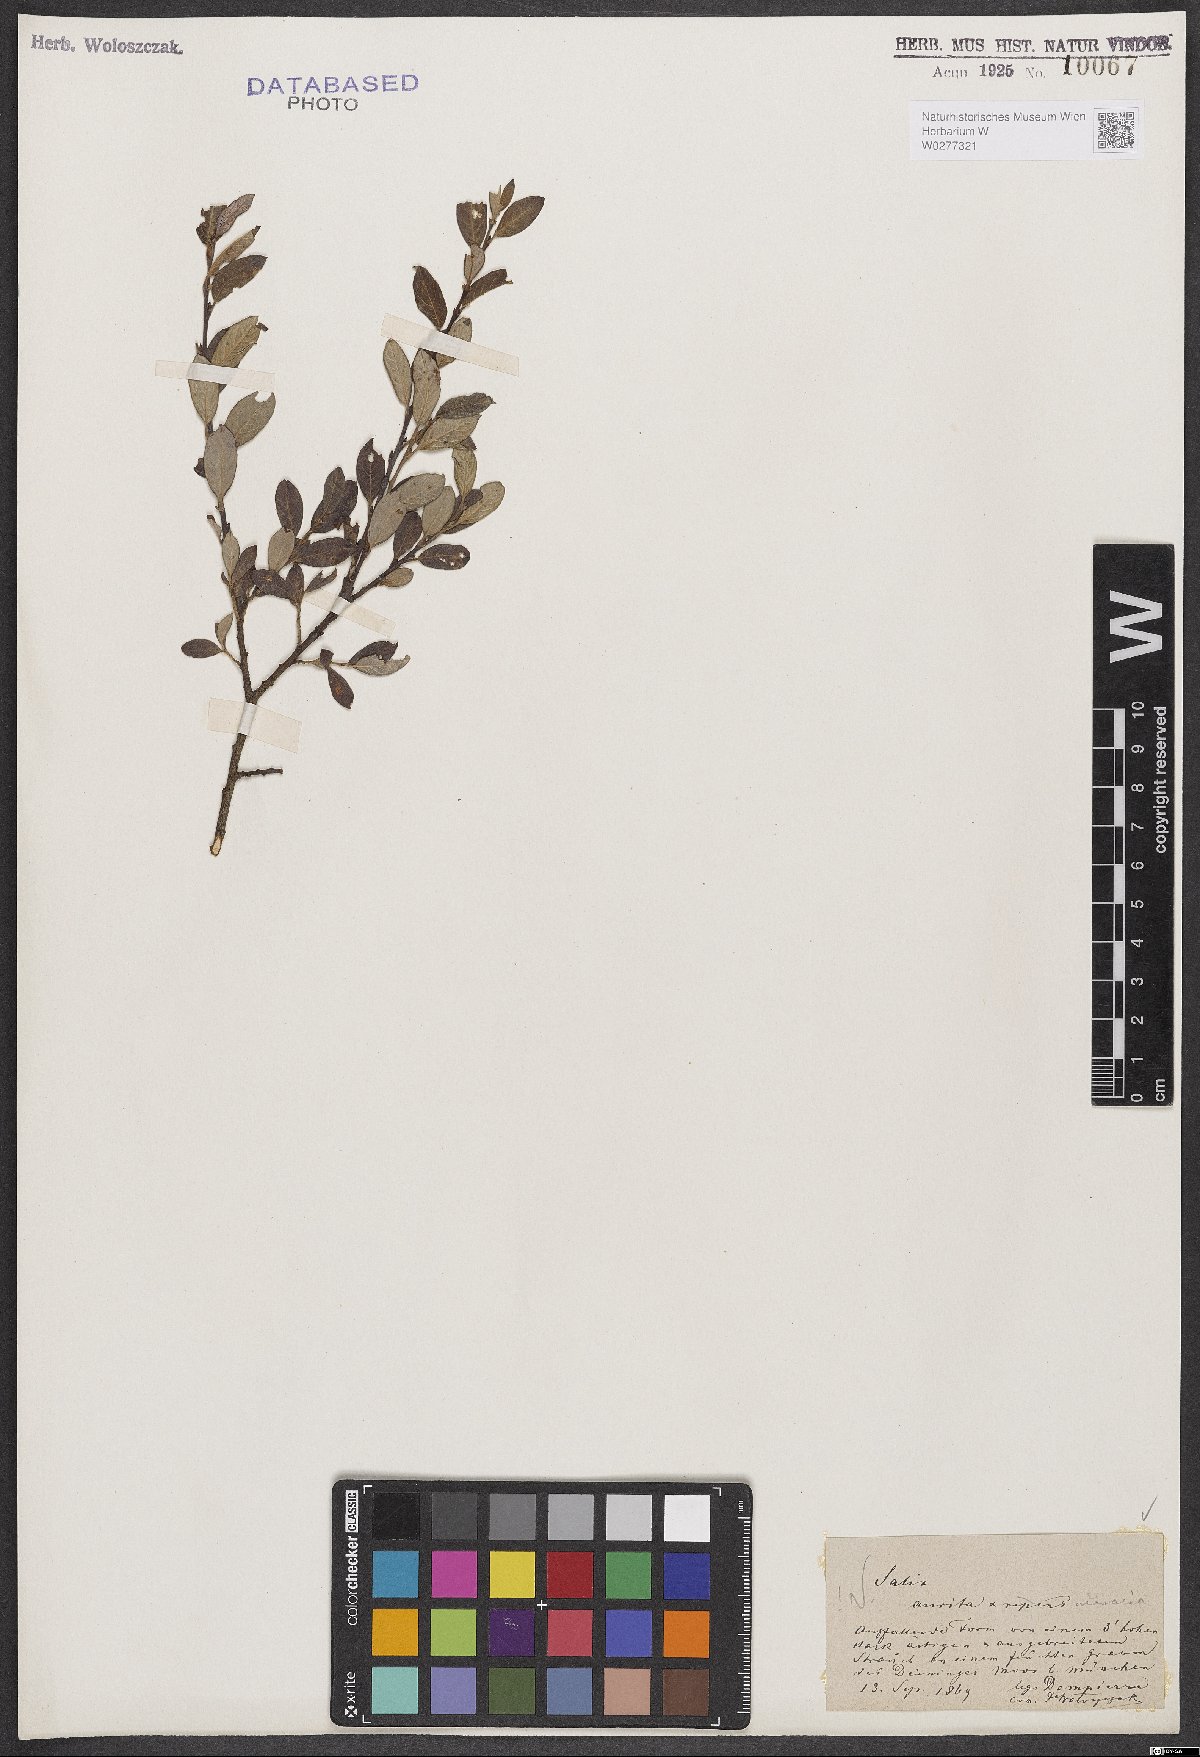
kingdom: Plantae
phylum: Tracheophyta
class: Magnoliopsida
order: Malpighiales
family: Salicaceae
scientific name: Salicaceae
